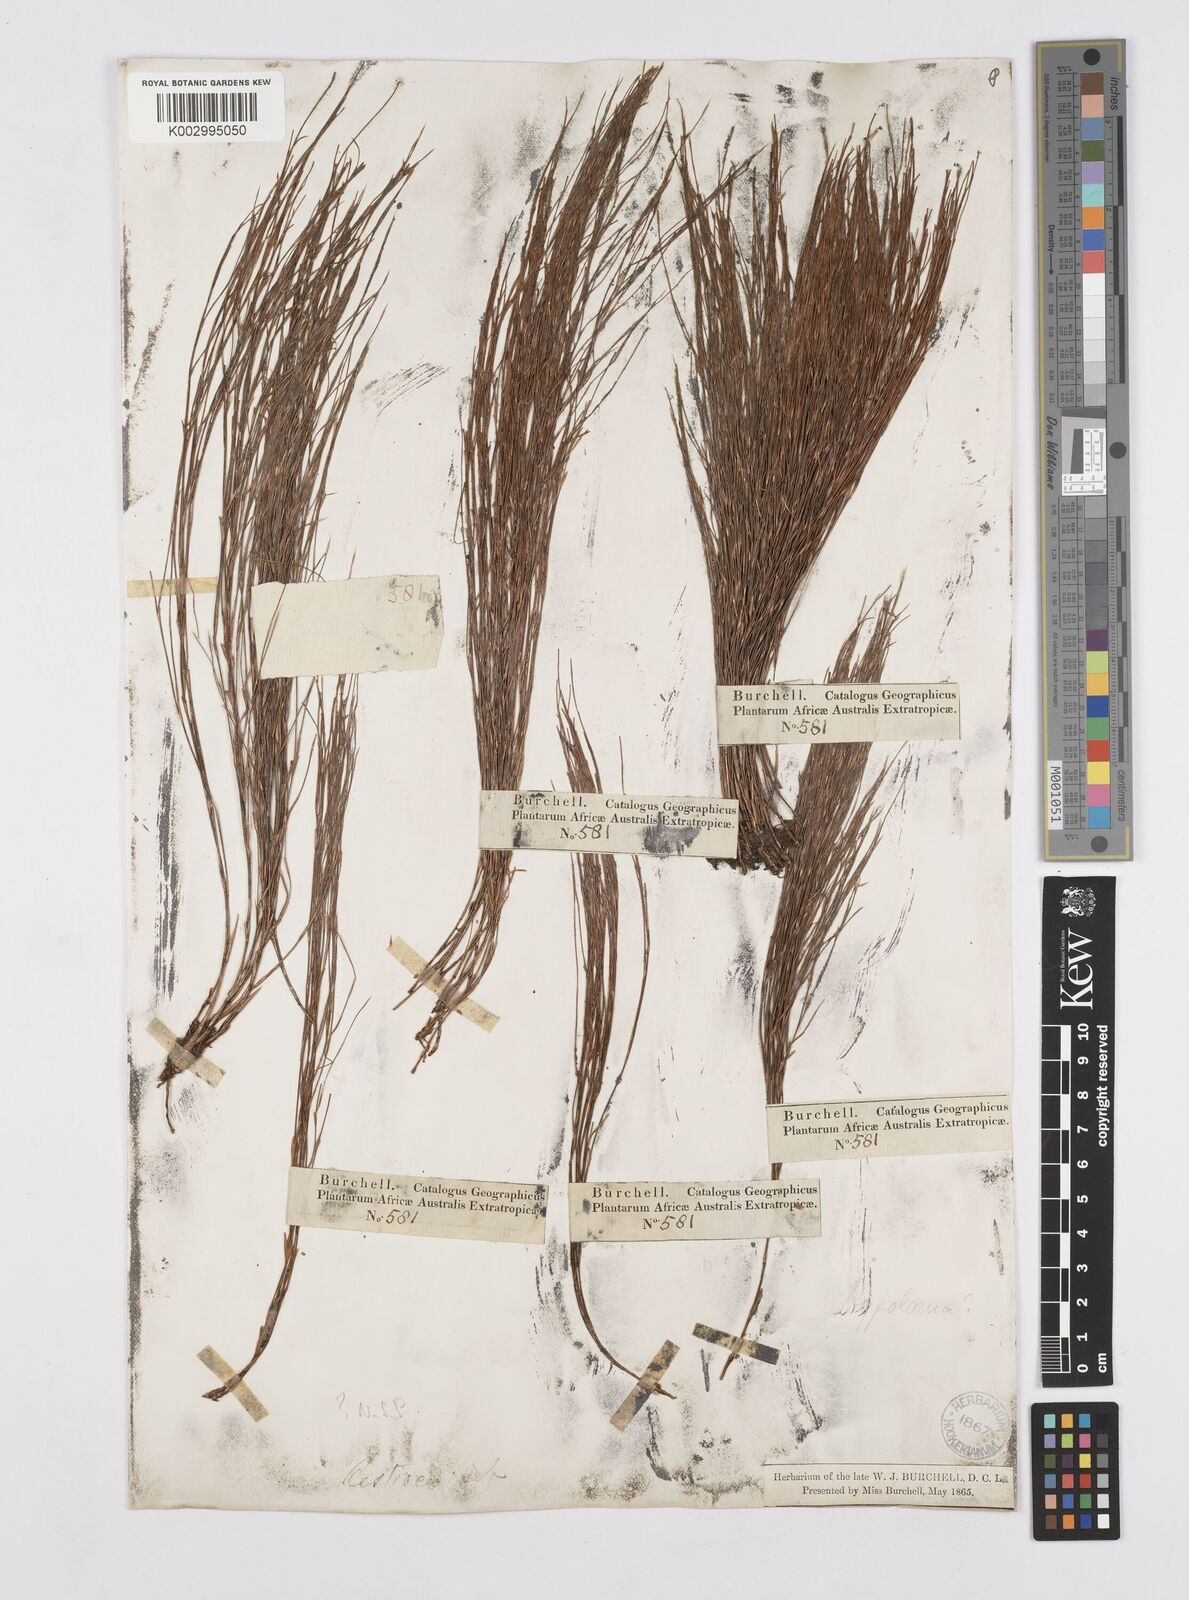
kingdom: Plantae
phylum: Tracheophyta
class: Liliopsida
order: Poales
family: Restionaceae
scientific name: Restionaceae
